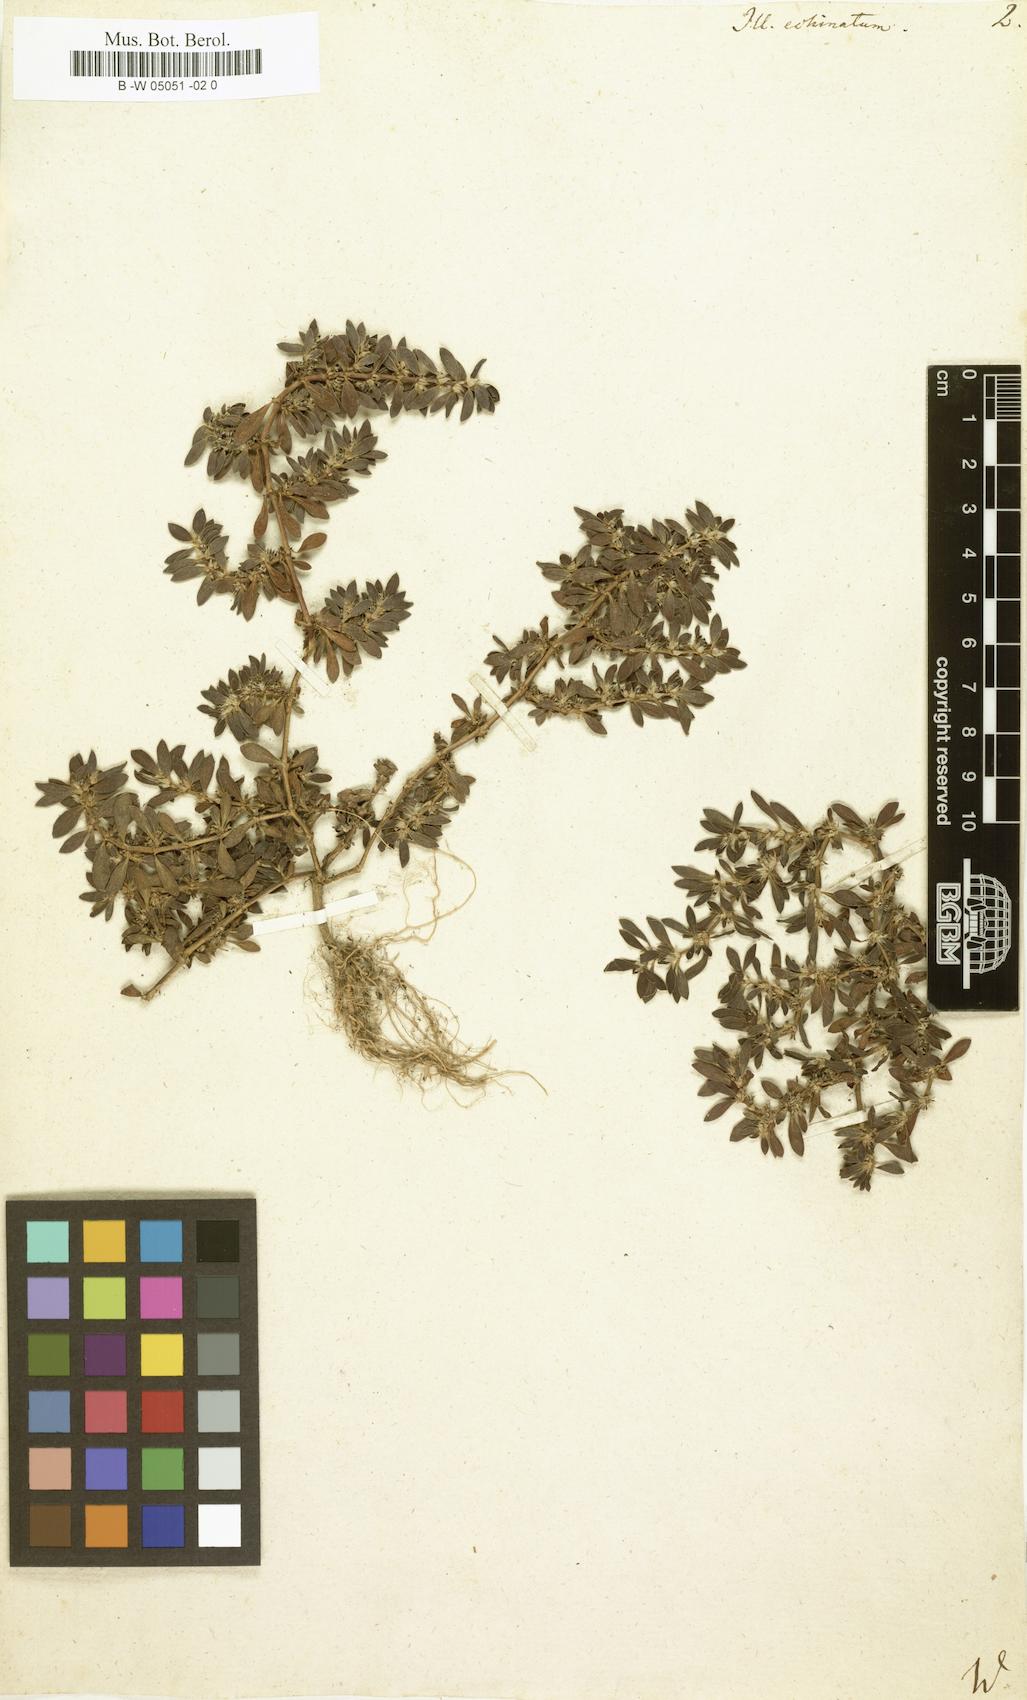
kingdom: Plantae
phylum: Tracheophyta
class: Magnoliopsida
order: Caryophyllales
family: Caryophyllaceae
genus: Paronychia
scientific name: Paronychia echinulata
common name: Eurasian nailwort
